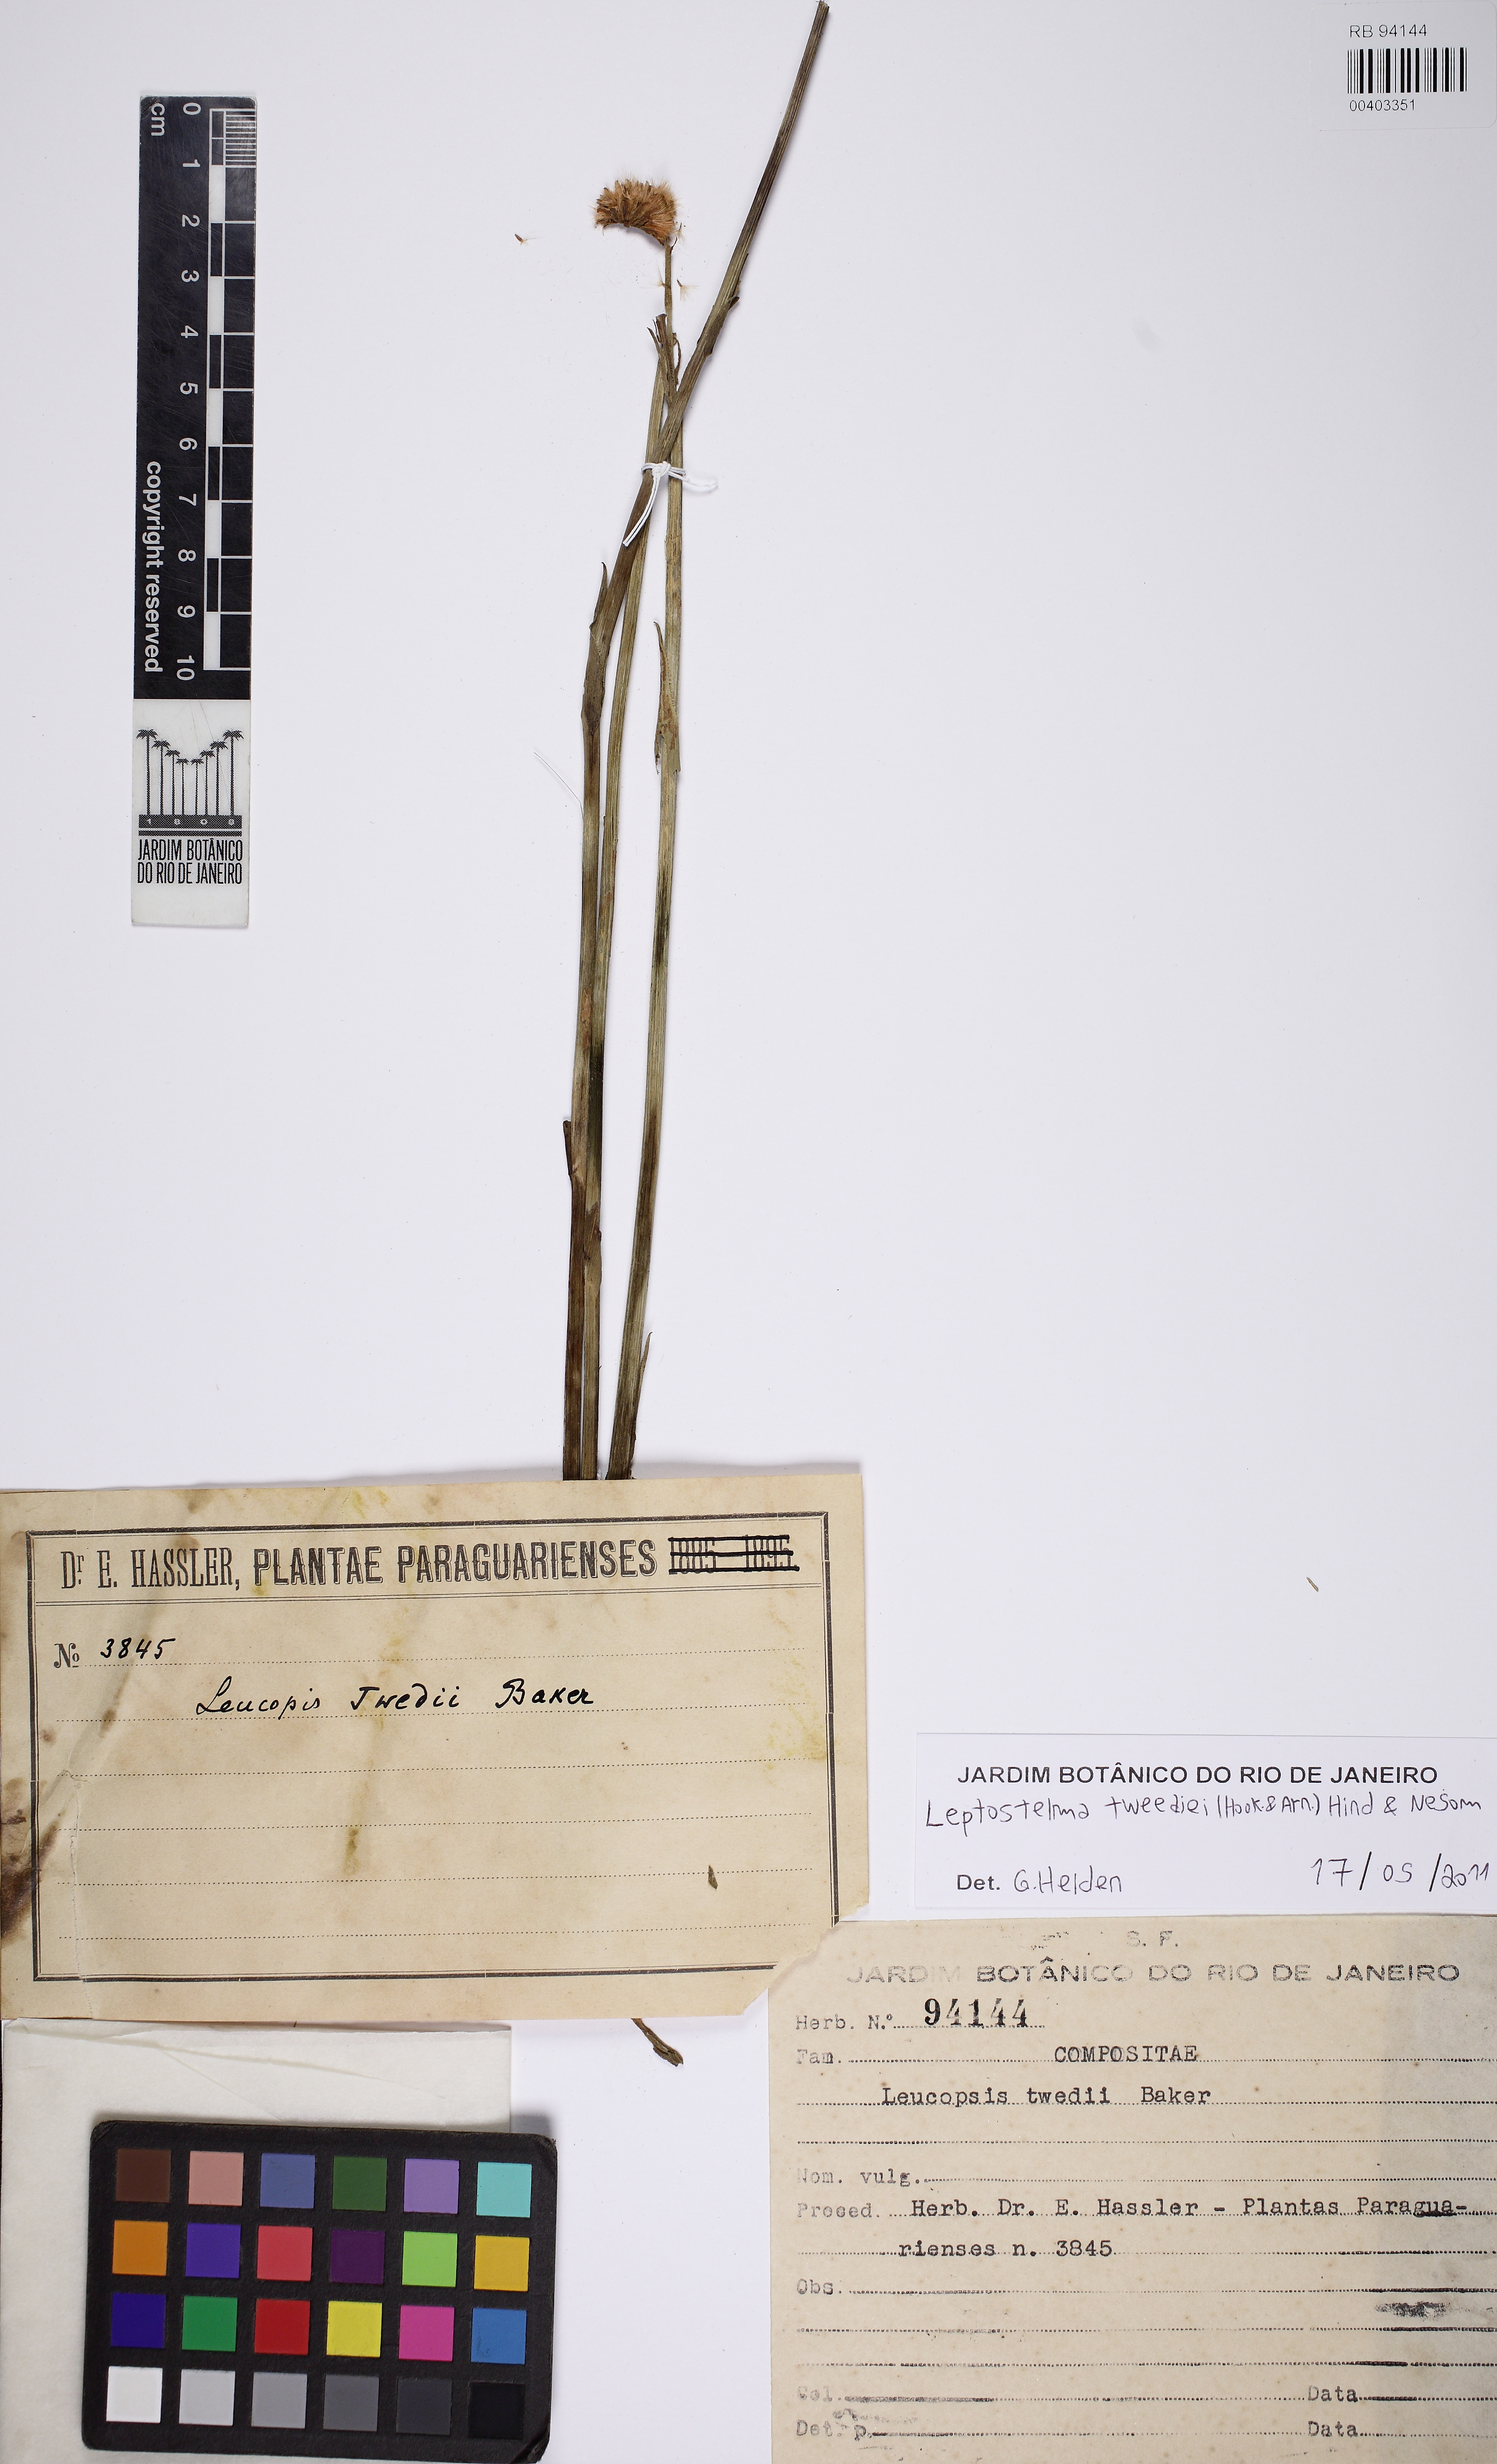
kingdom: Plantae
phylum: Tracheophyta
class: Magnoliopsida
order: Asterales
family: Asteraceae
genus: Leptostelma
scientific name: Leptostelma tweediei
